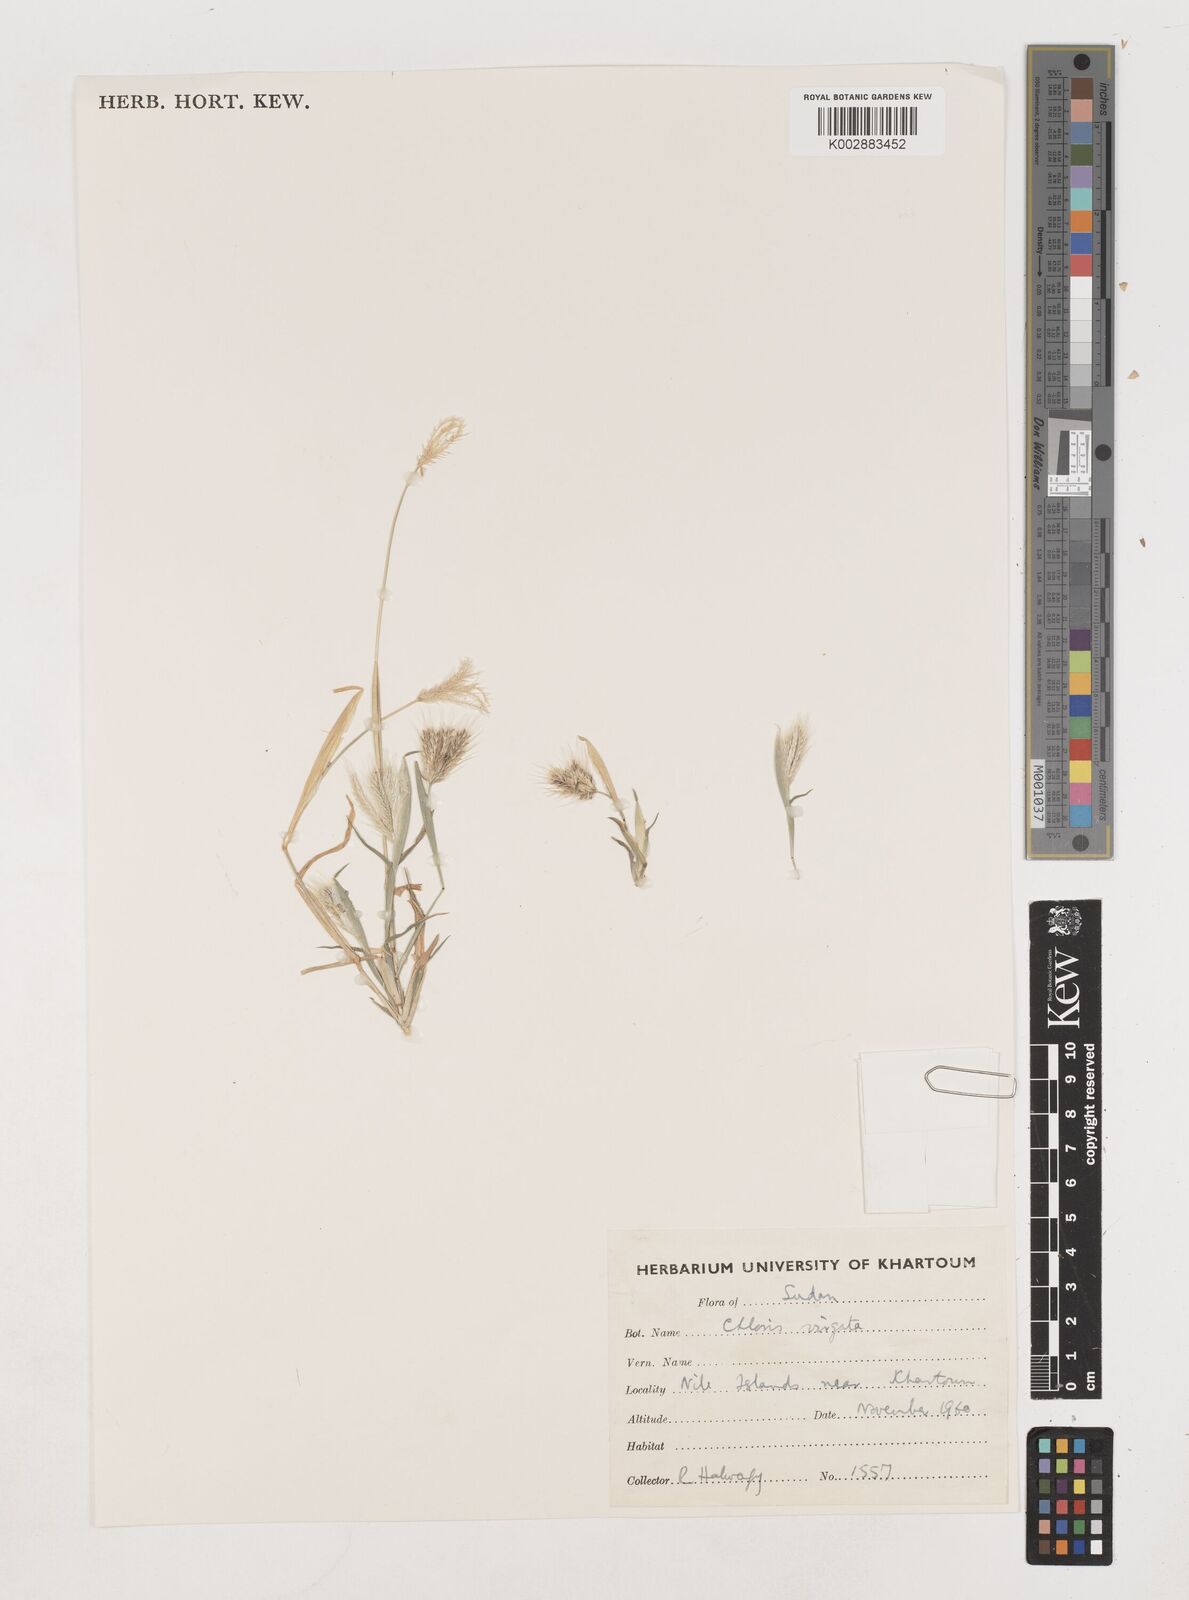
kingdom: Plantae
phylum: Tracheophyta
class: Liliopsida
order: Poales
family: Poaceae
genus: Chloris
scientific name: Chloris virgata
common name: Feathery rhodes-grass
